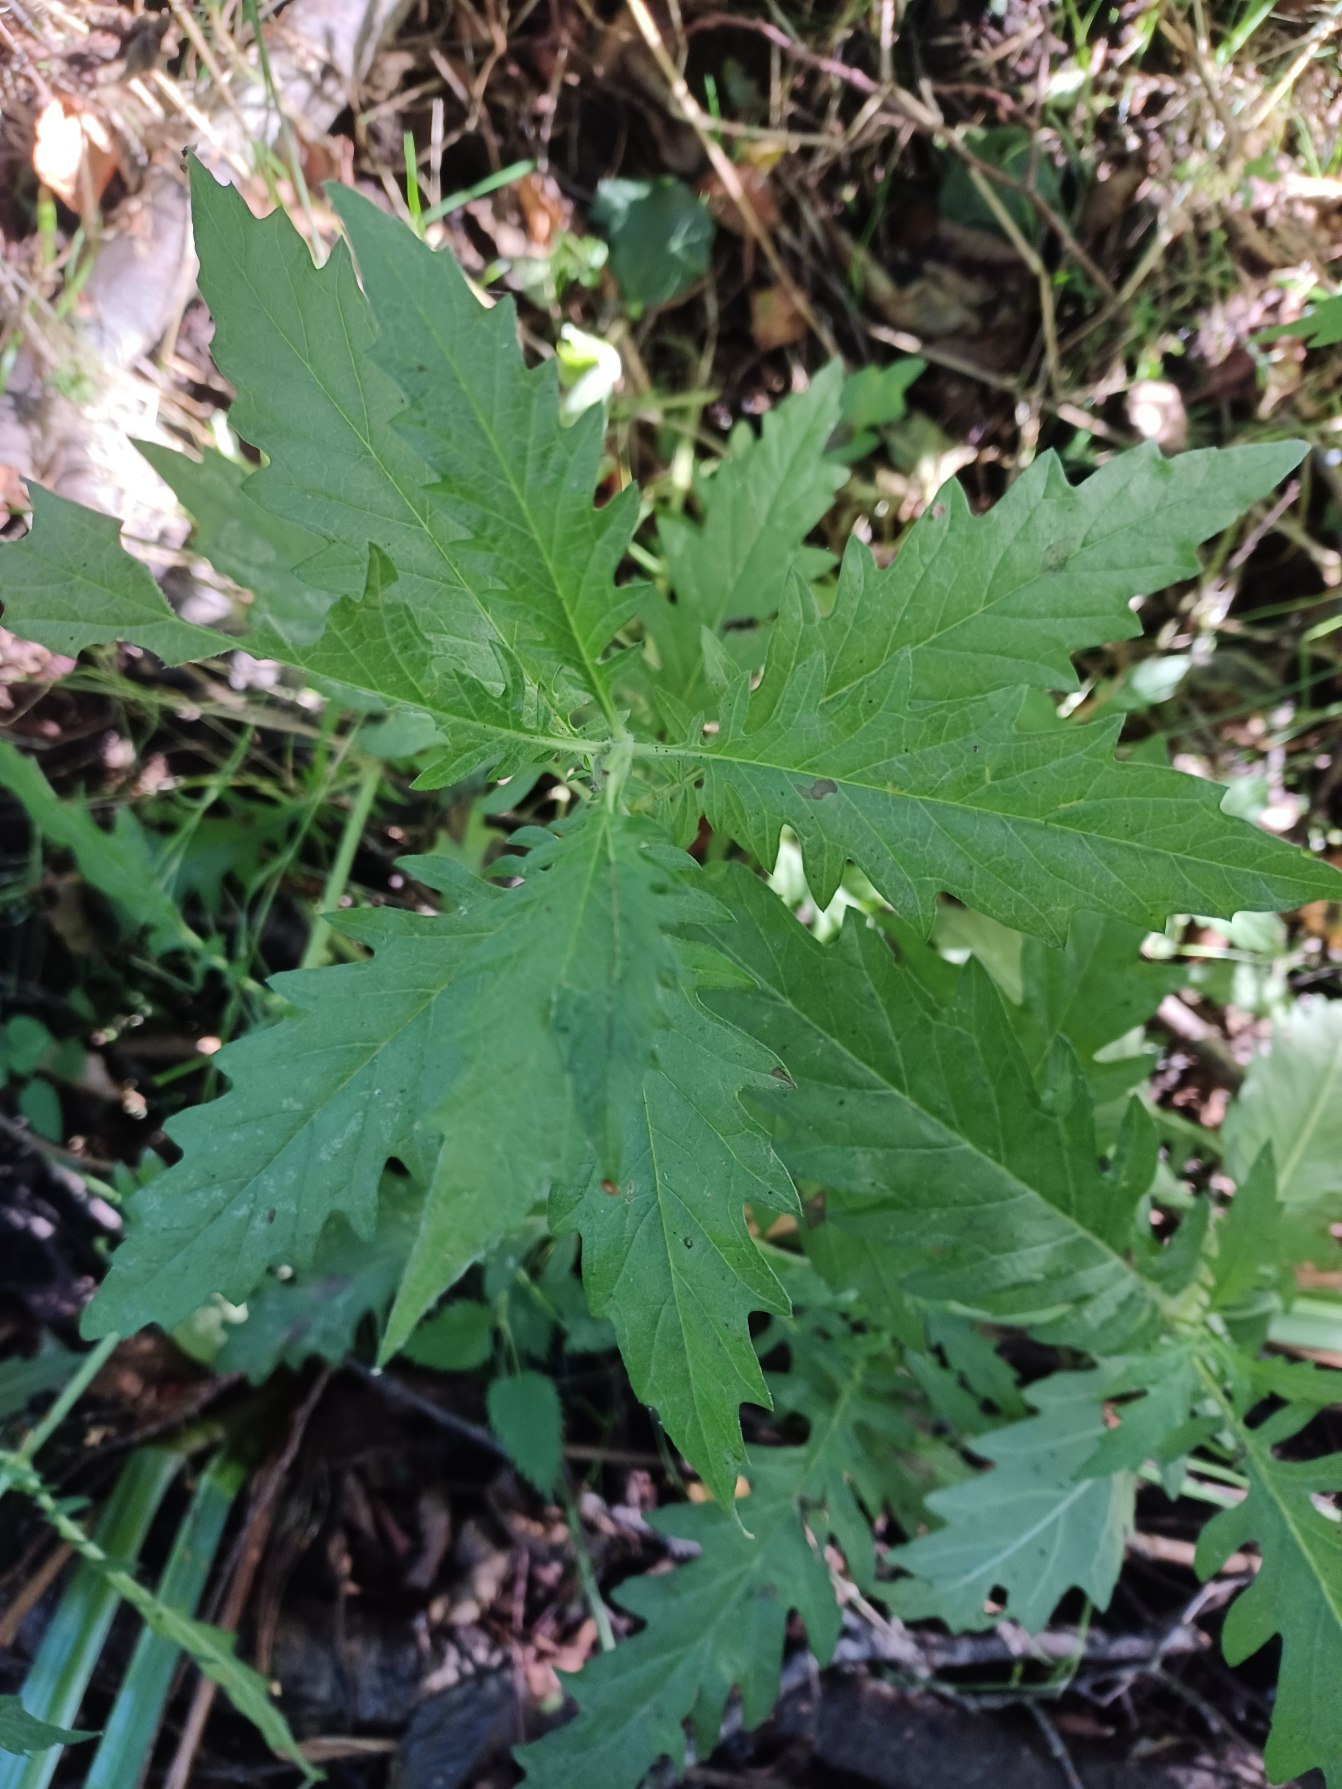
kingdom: Plantae
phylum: Tracheophyta
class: Magnoliopsida
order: Lamiales
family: Lamiaceae
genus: Lycopus
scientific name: Lycopus europaeus
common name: Sværtevæld
